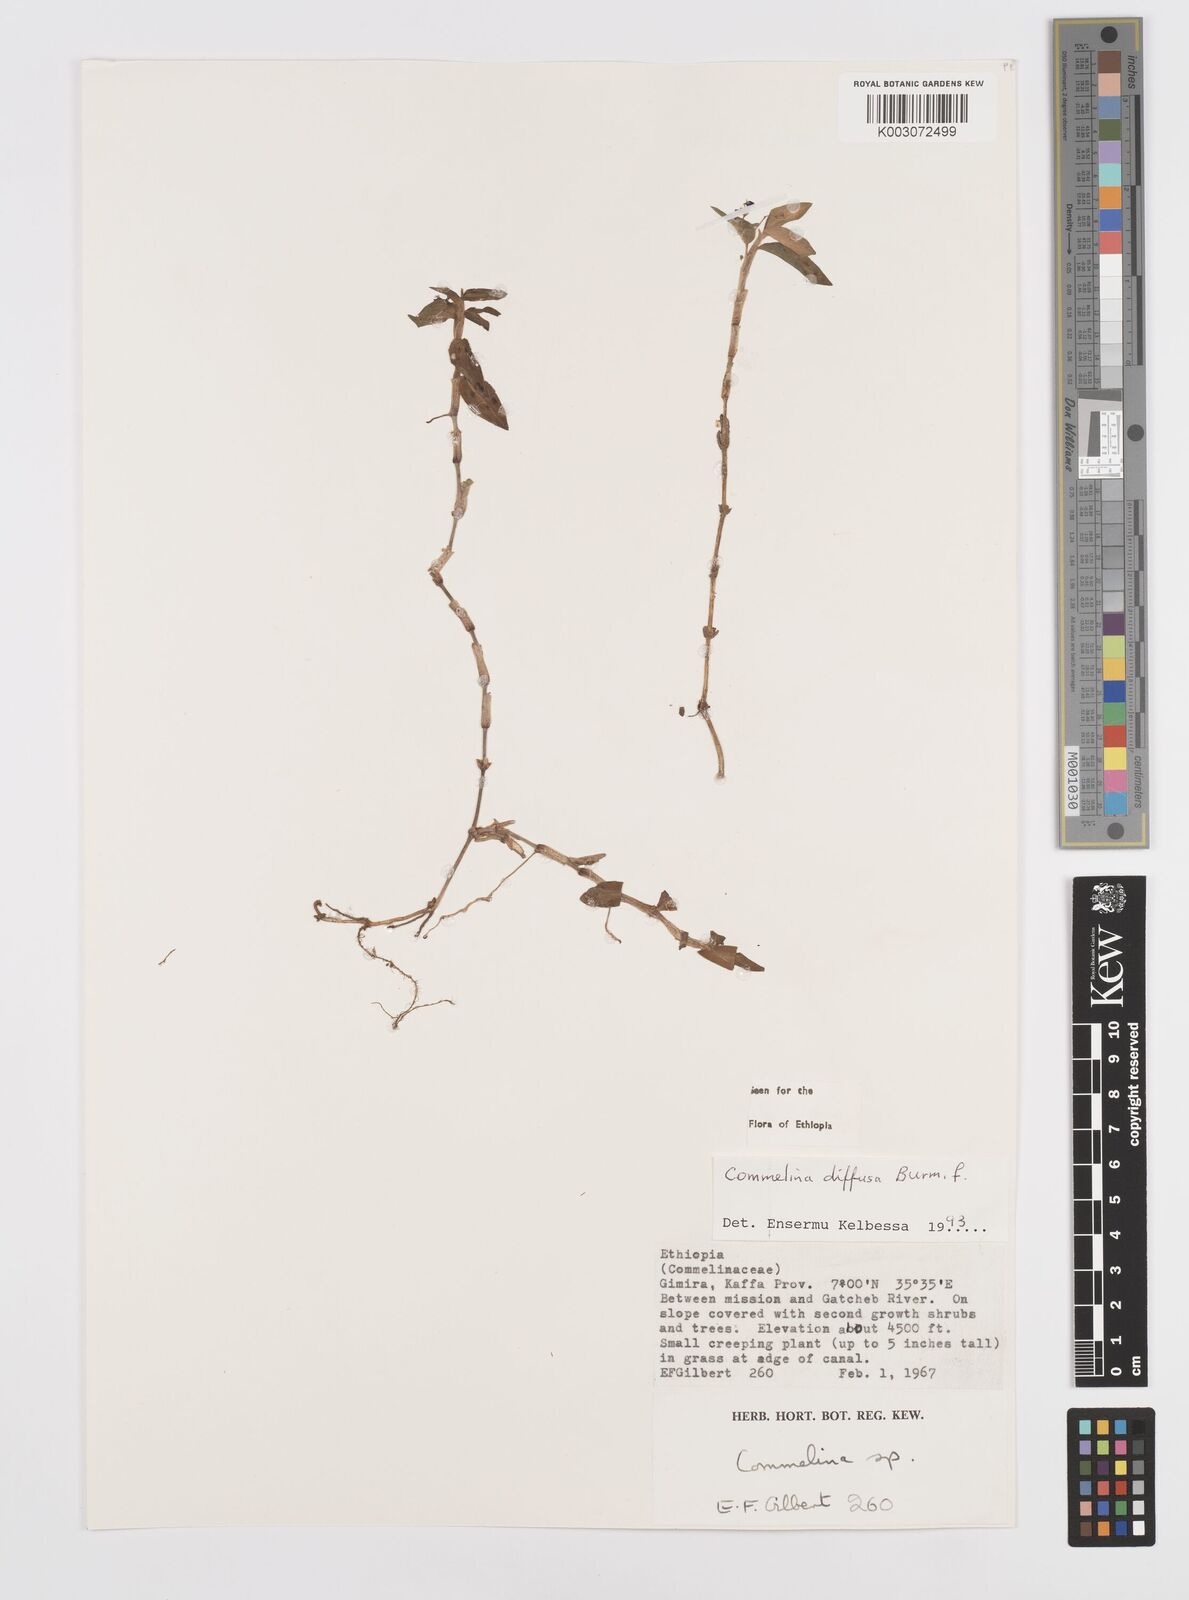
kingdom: Plantae
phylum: Tracheophyta
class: Liliopsida
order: Commelinales
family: Commelinaceae
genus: Commelina
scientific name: Commelina diffusa
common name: Climbing dayflower
